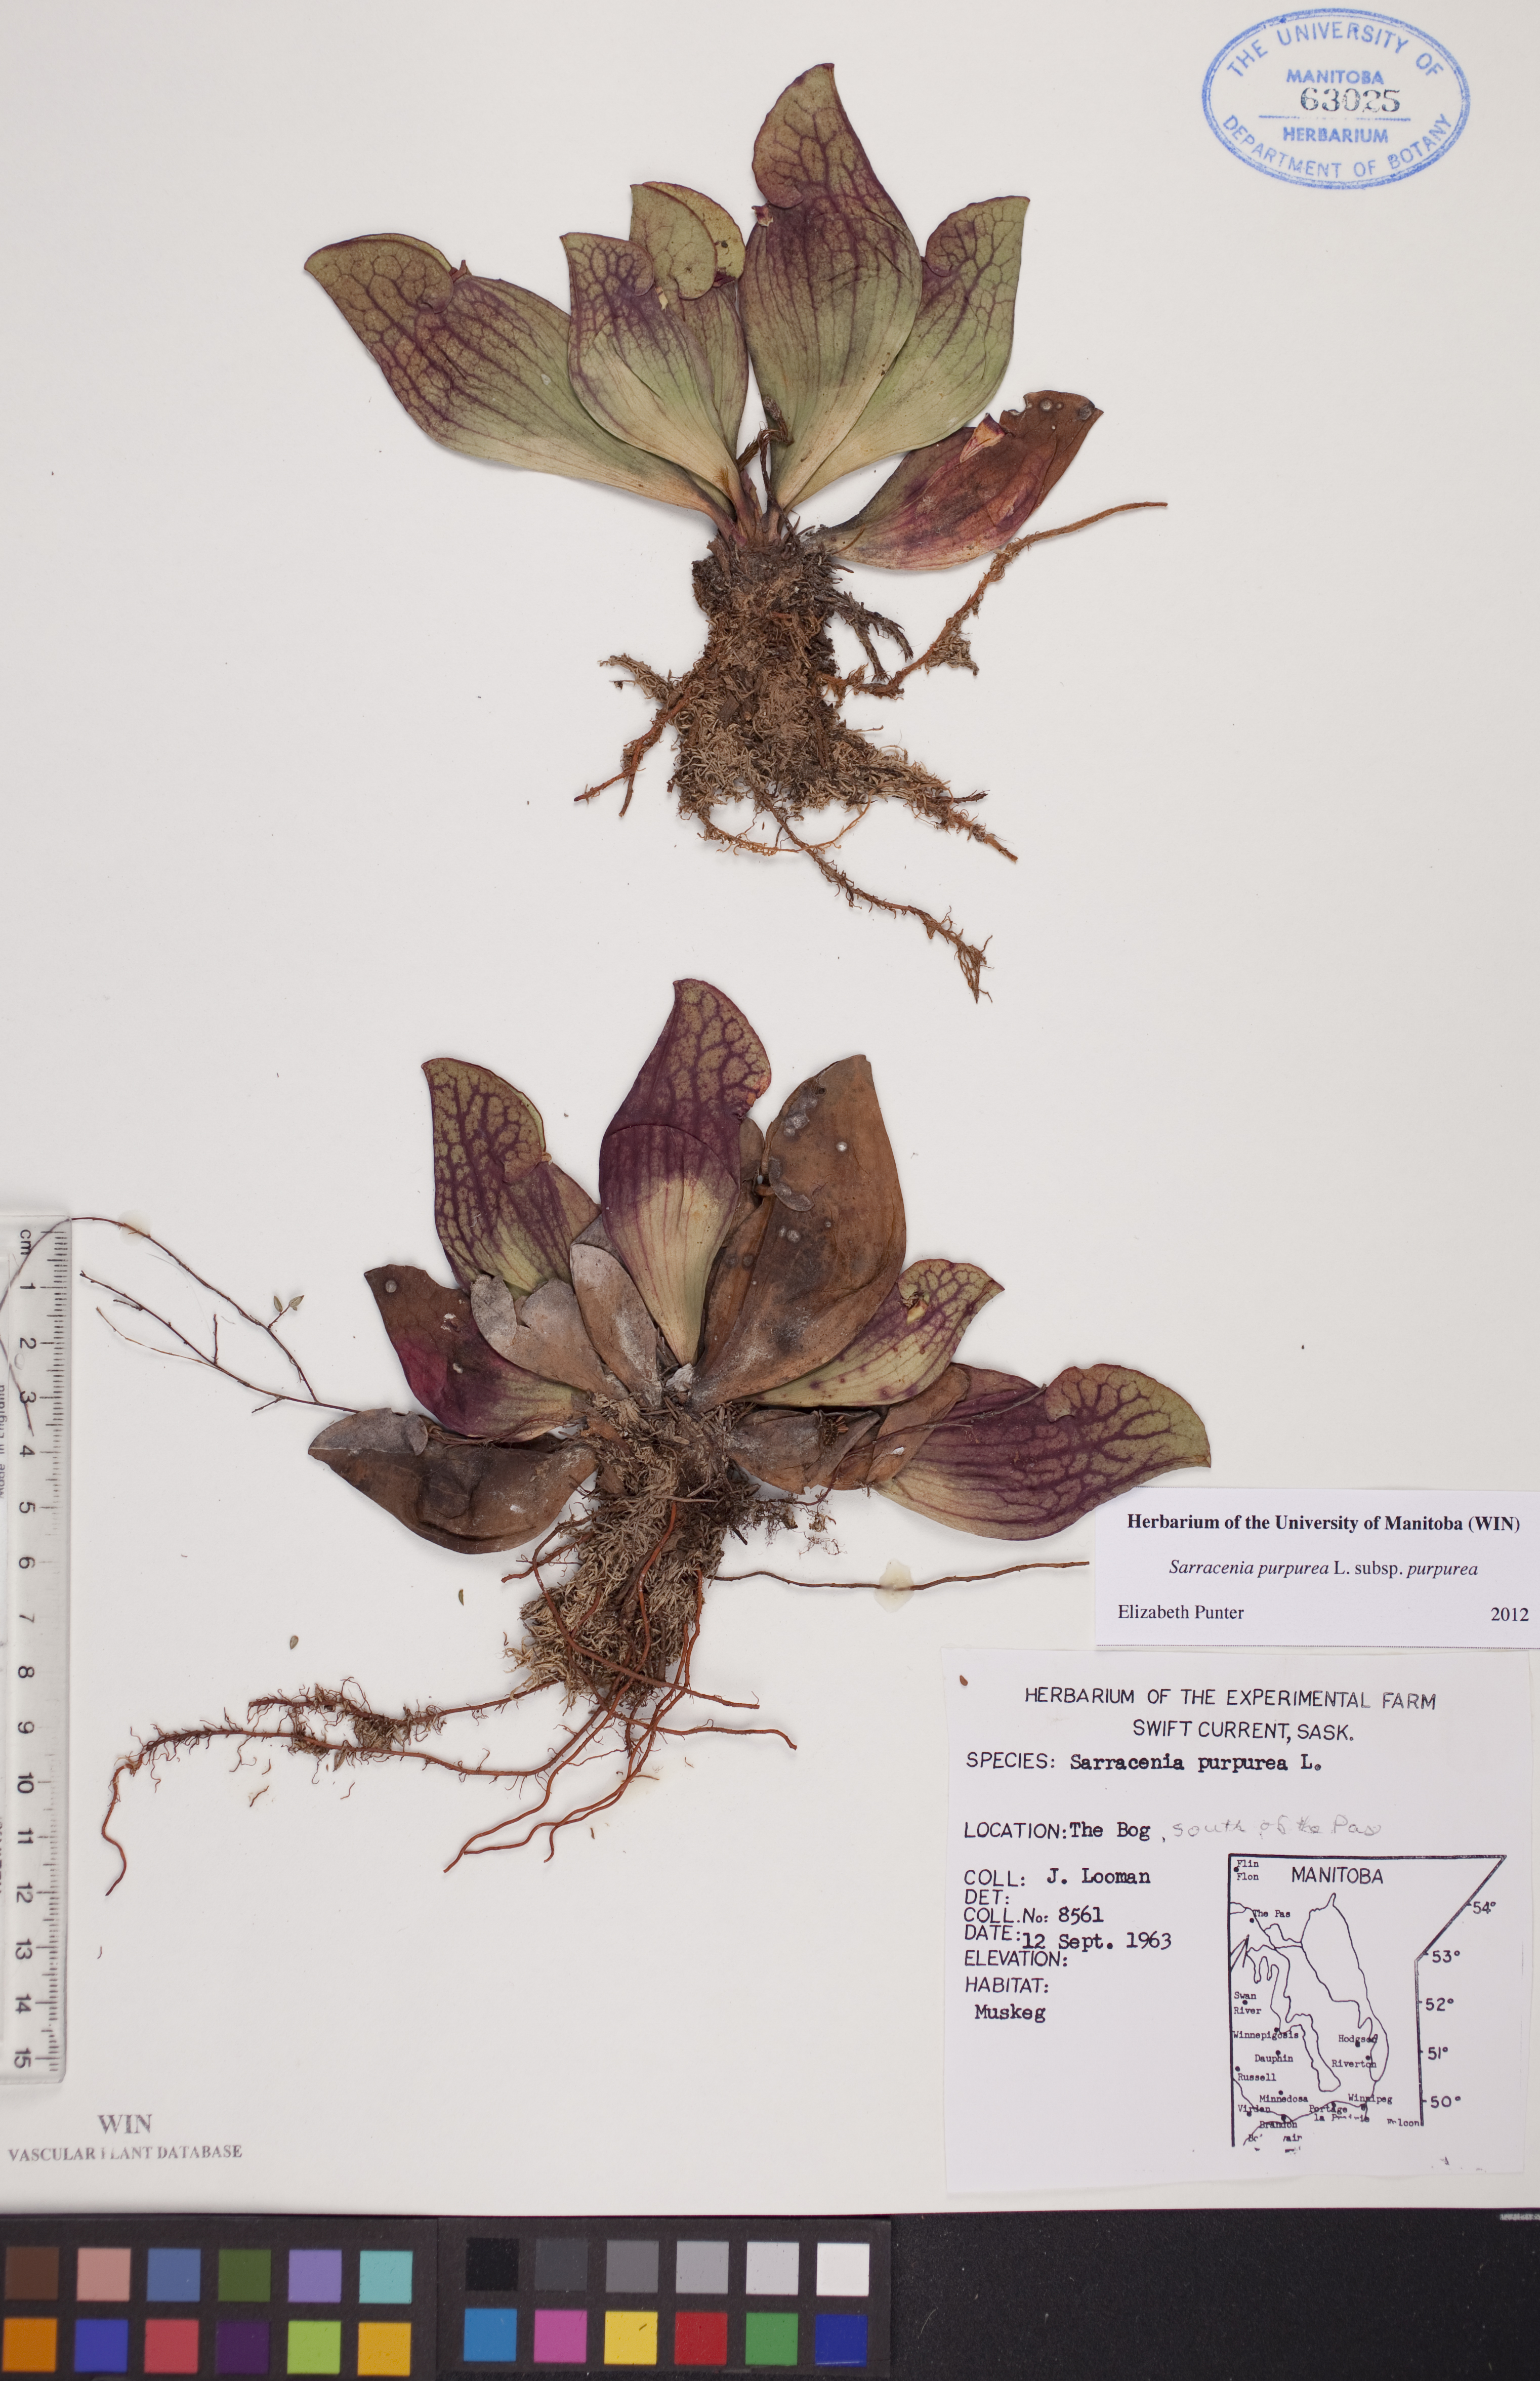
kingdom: Plantae
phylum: Tracheophyta
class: Magnoliopsida
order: Ericales
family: Sarraceniaceae
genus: Sarracenia
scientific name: Sarracenia purpurea
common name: Pitcherplant
